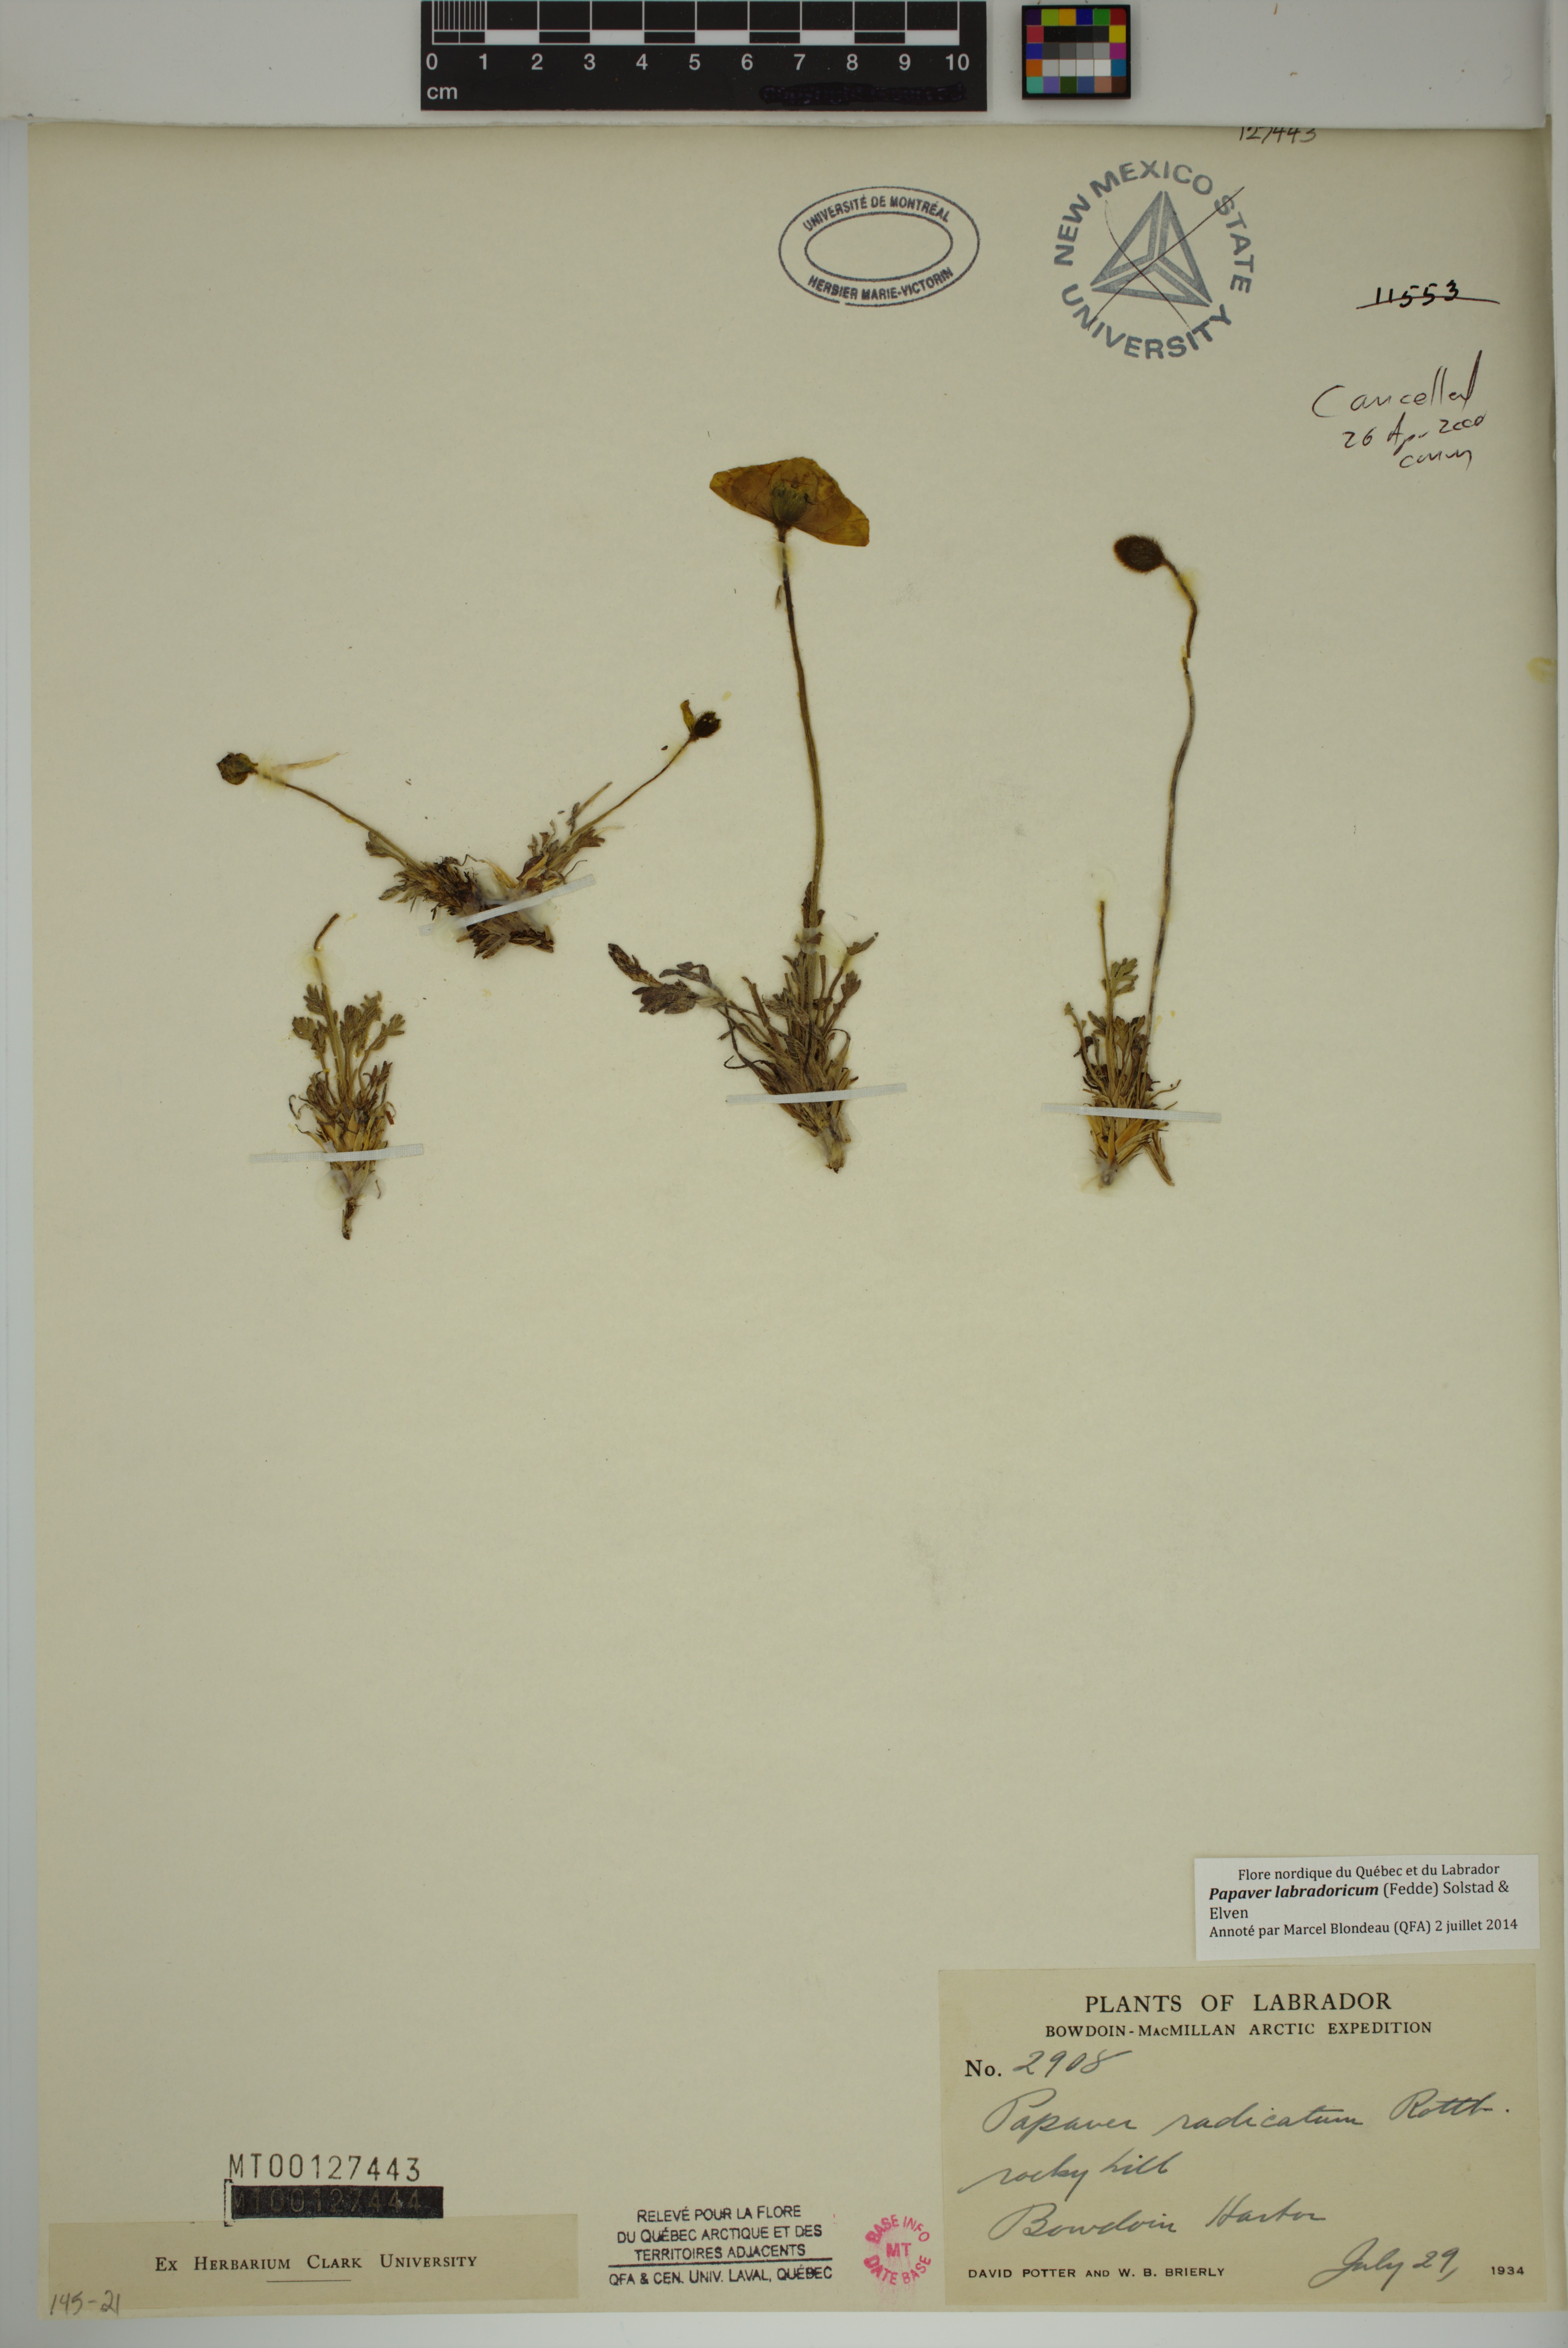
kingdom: Plantae
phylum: Tracheophyta
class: Magnoliopsida
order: Ranunculales
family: Papaveraceae
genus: Papaver
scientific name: Papaver radicatum
